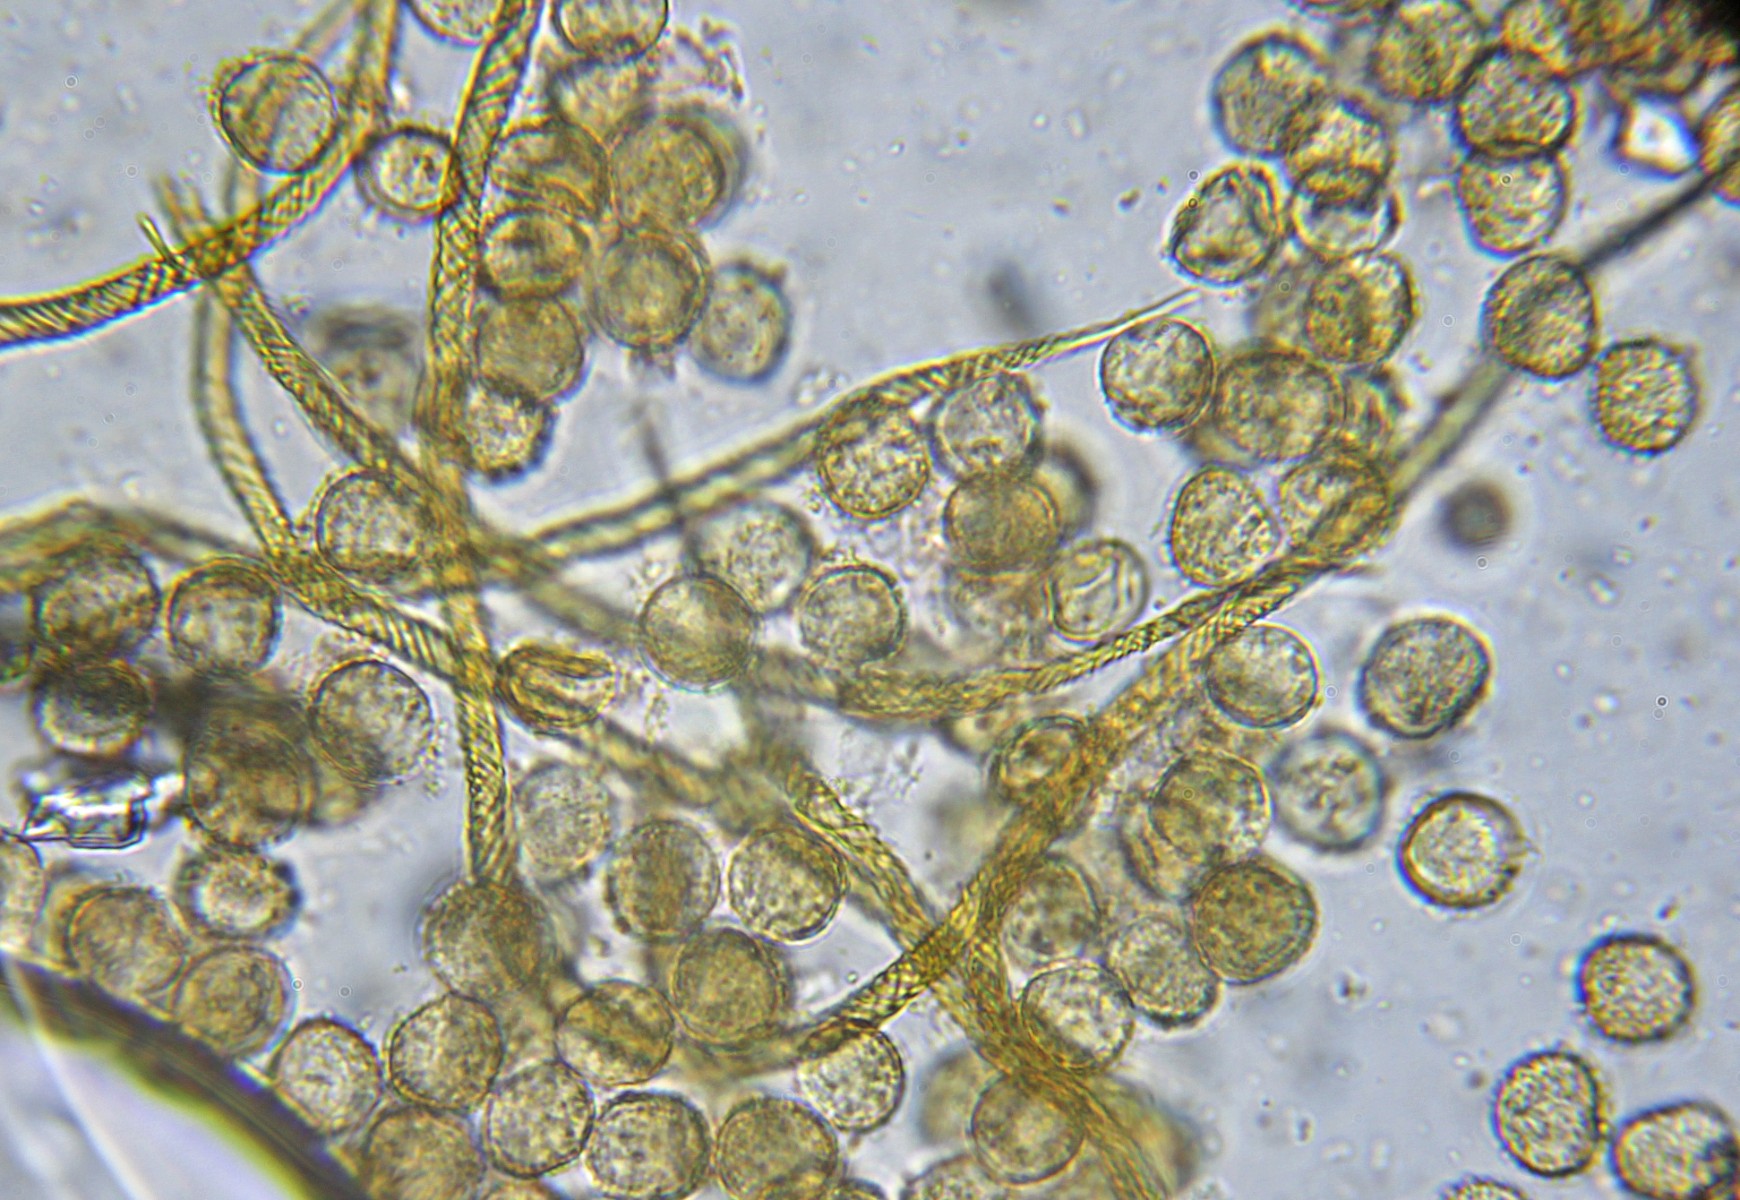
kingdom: Protozoa
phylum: Mycetozoa
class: Myxomycetes
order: Trichiales
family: Arcyriaceae
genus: Hemitrichia
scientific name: Hemitrichia decipiens
